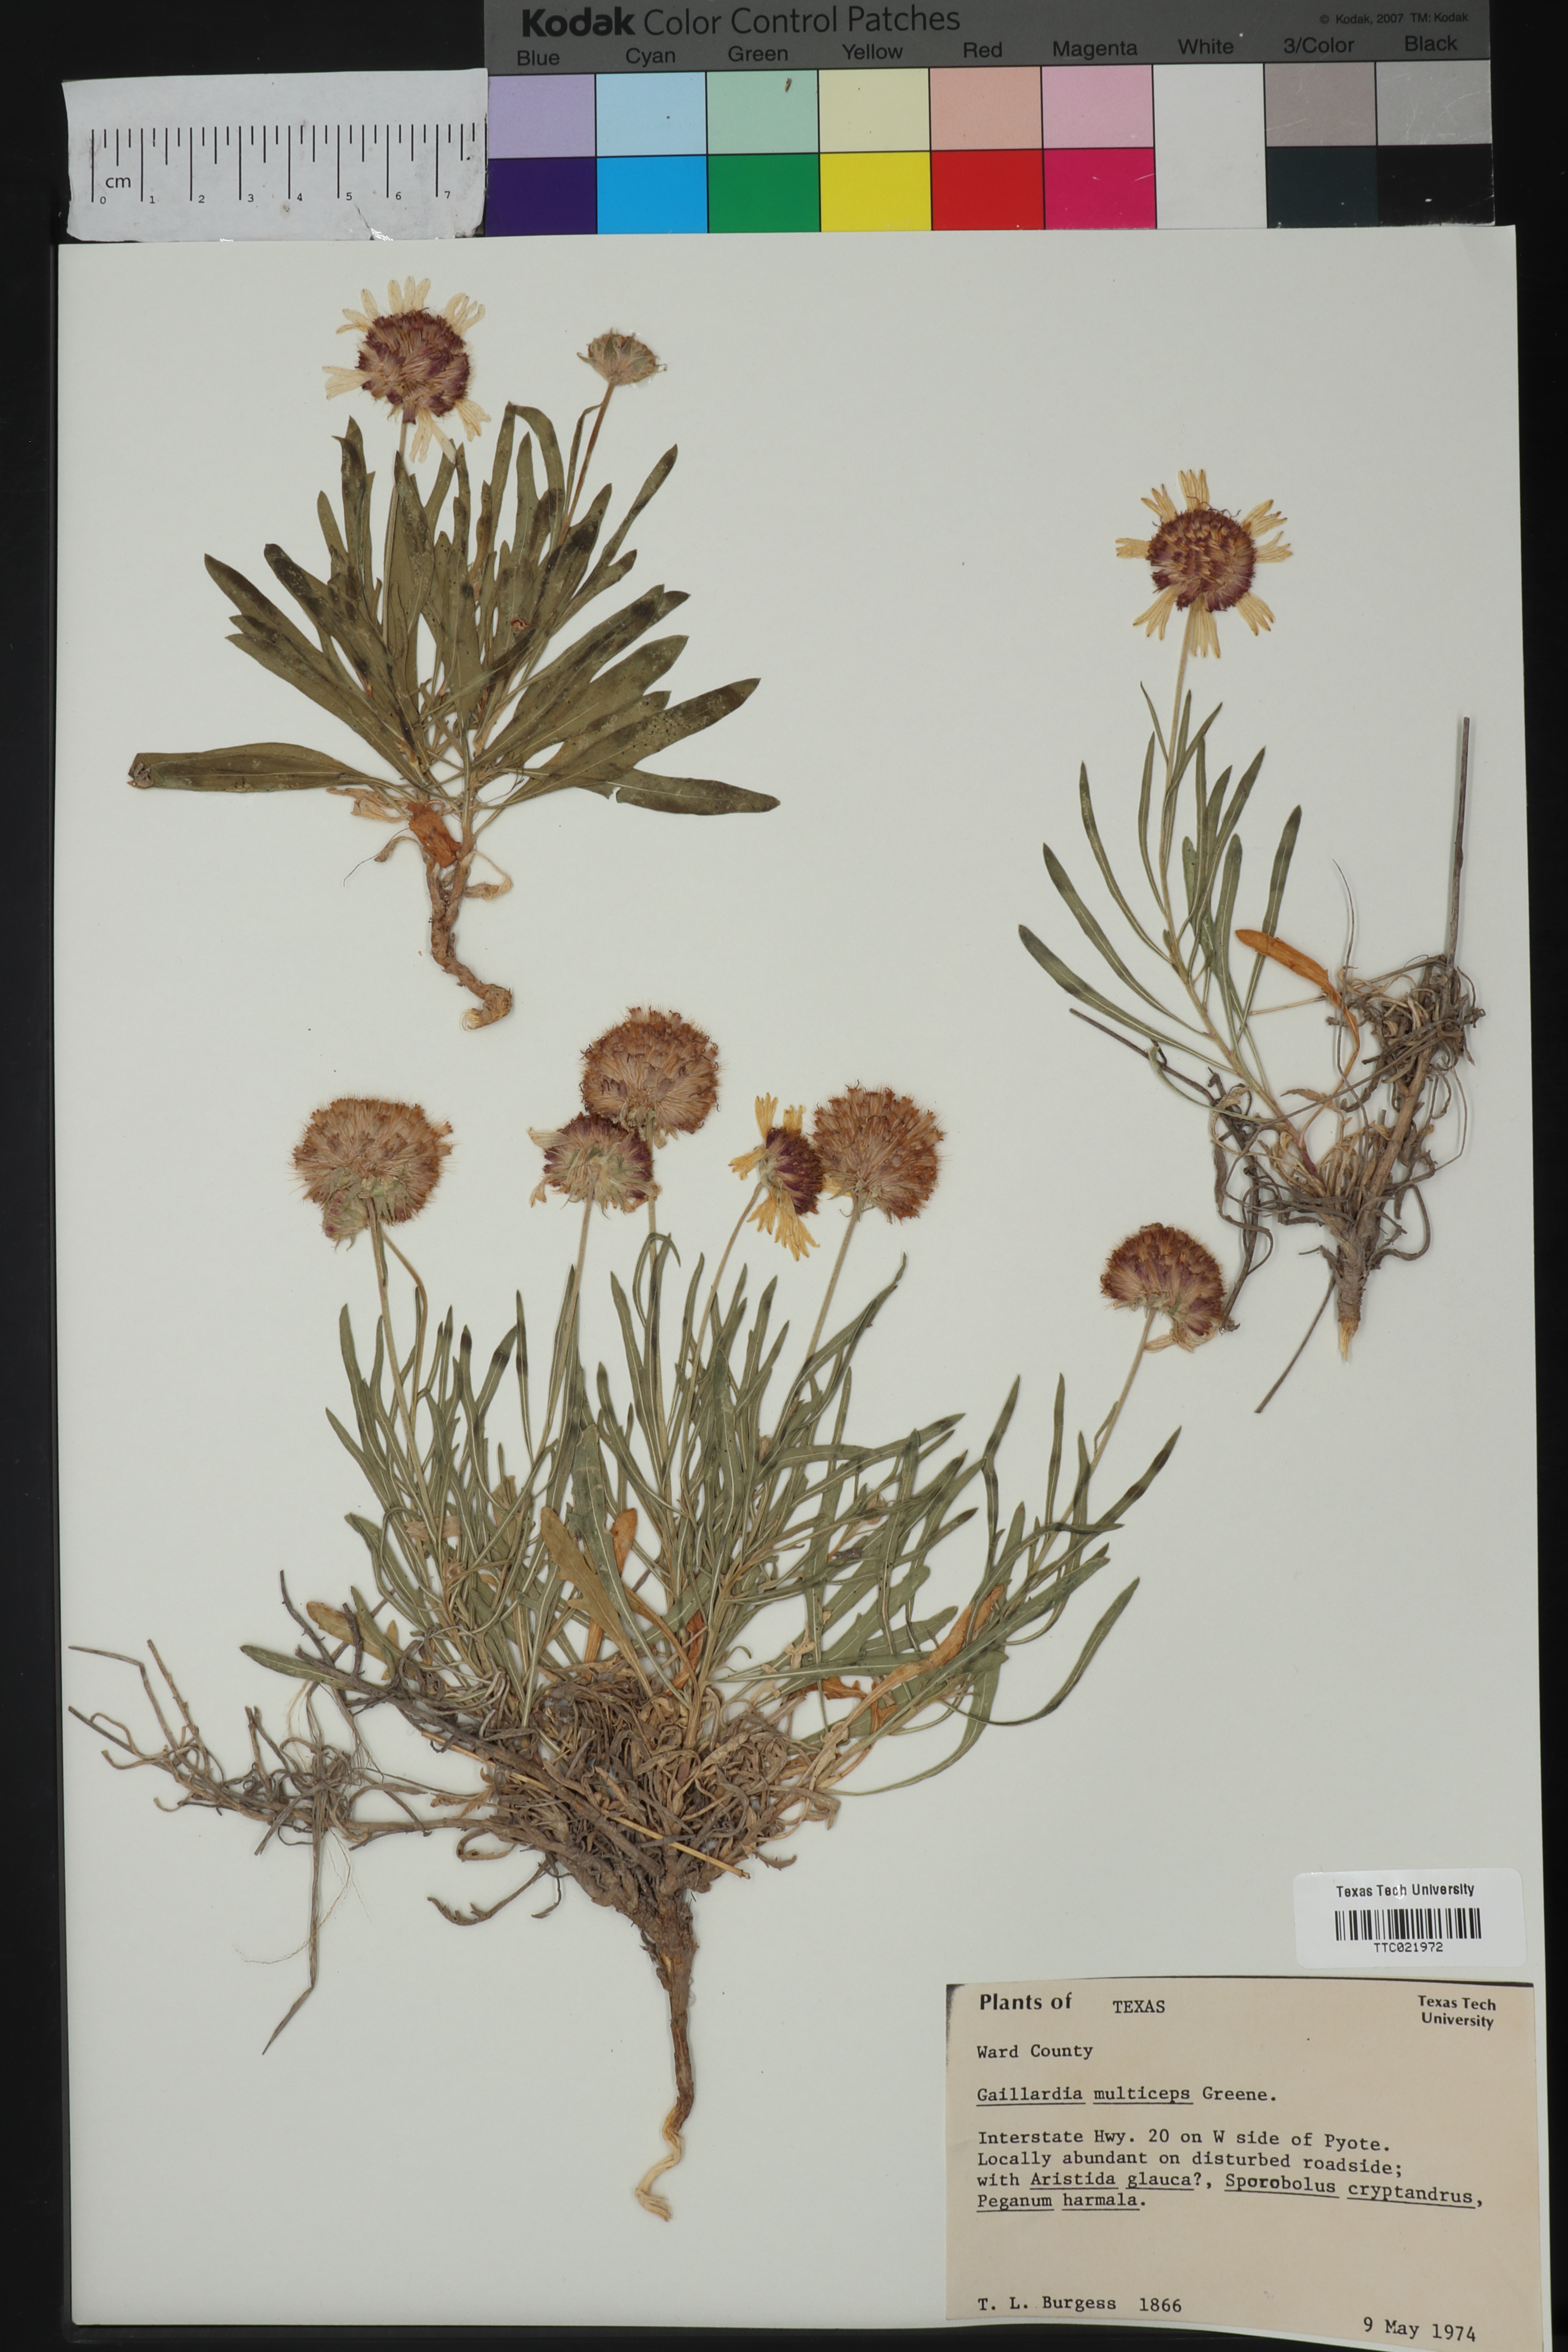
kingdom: Plantae
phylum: Tracheophyta
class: Magnoliopsida
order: Asterales
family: Asteraceae
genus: Gaillardia
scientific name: Gaillardia multiceps
